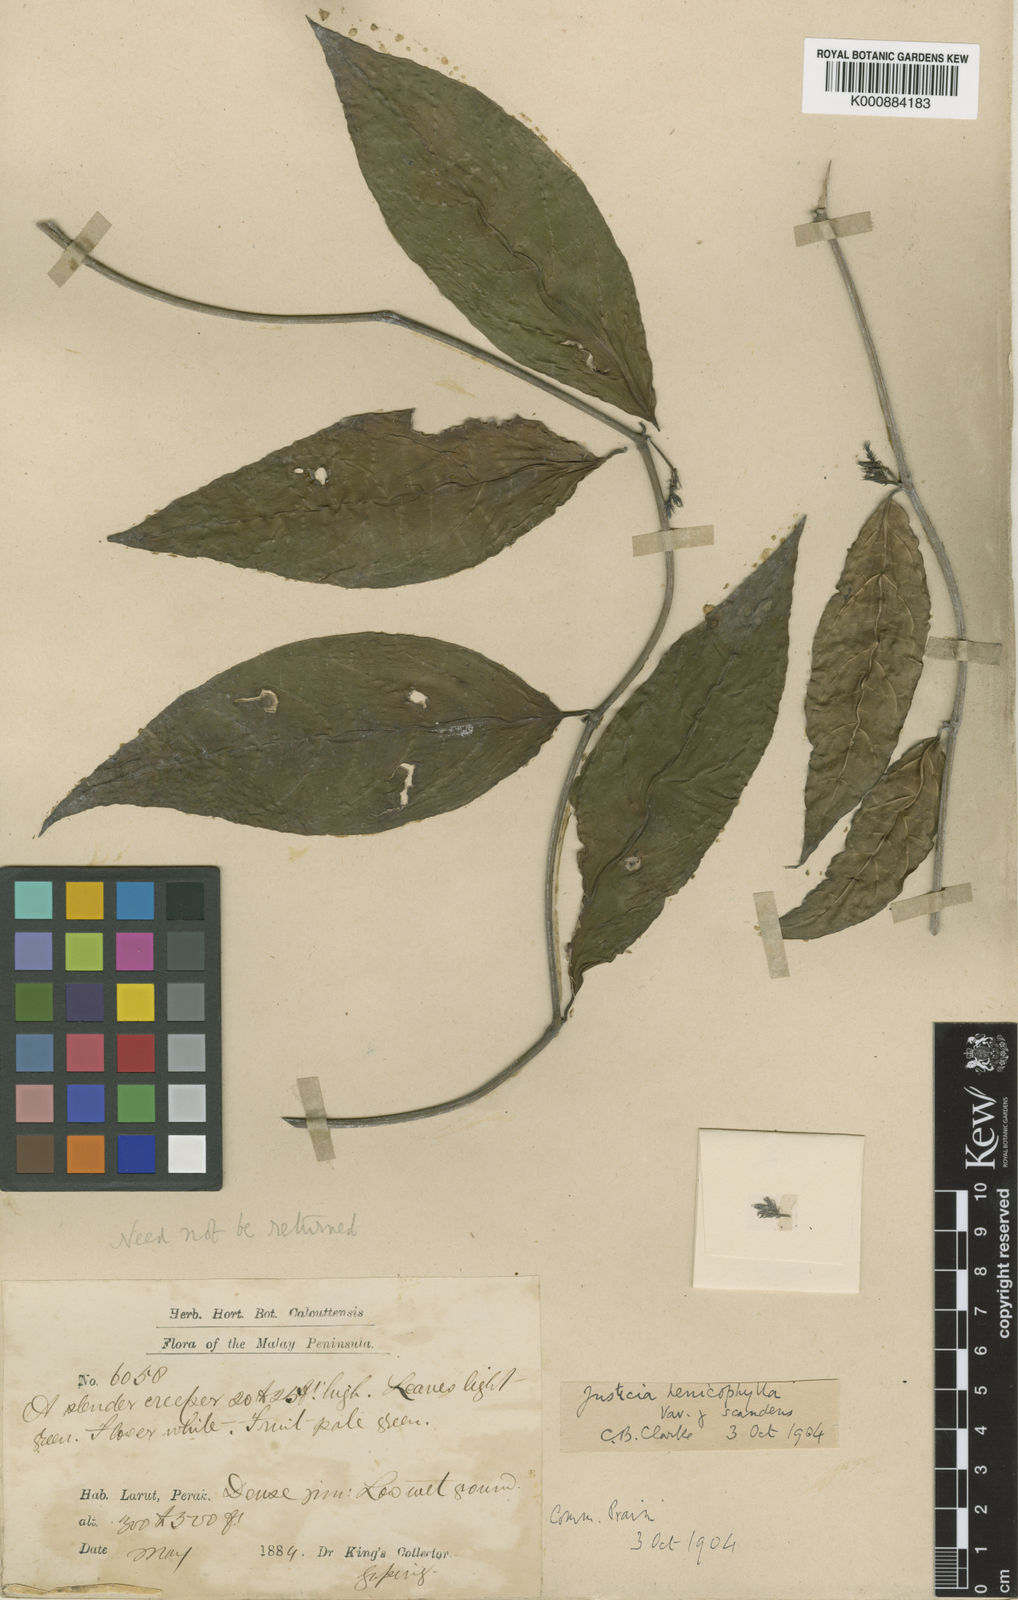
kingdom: Plantae
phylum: Tracheophyta
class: Magnoliopsida
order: Lamiales
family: Acanthaceae
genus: Justicia
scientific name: Justicia alternifolia
